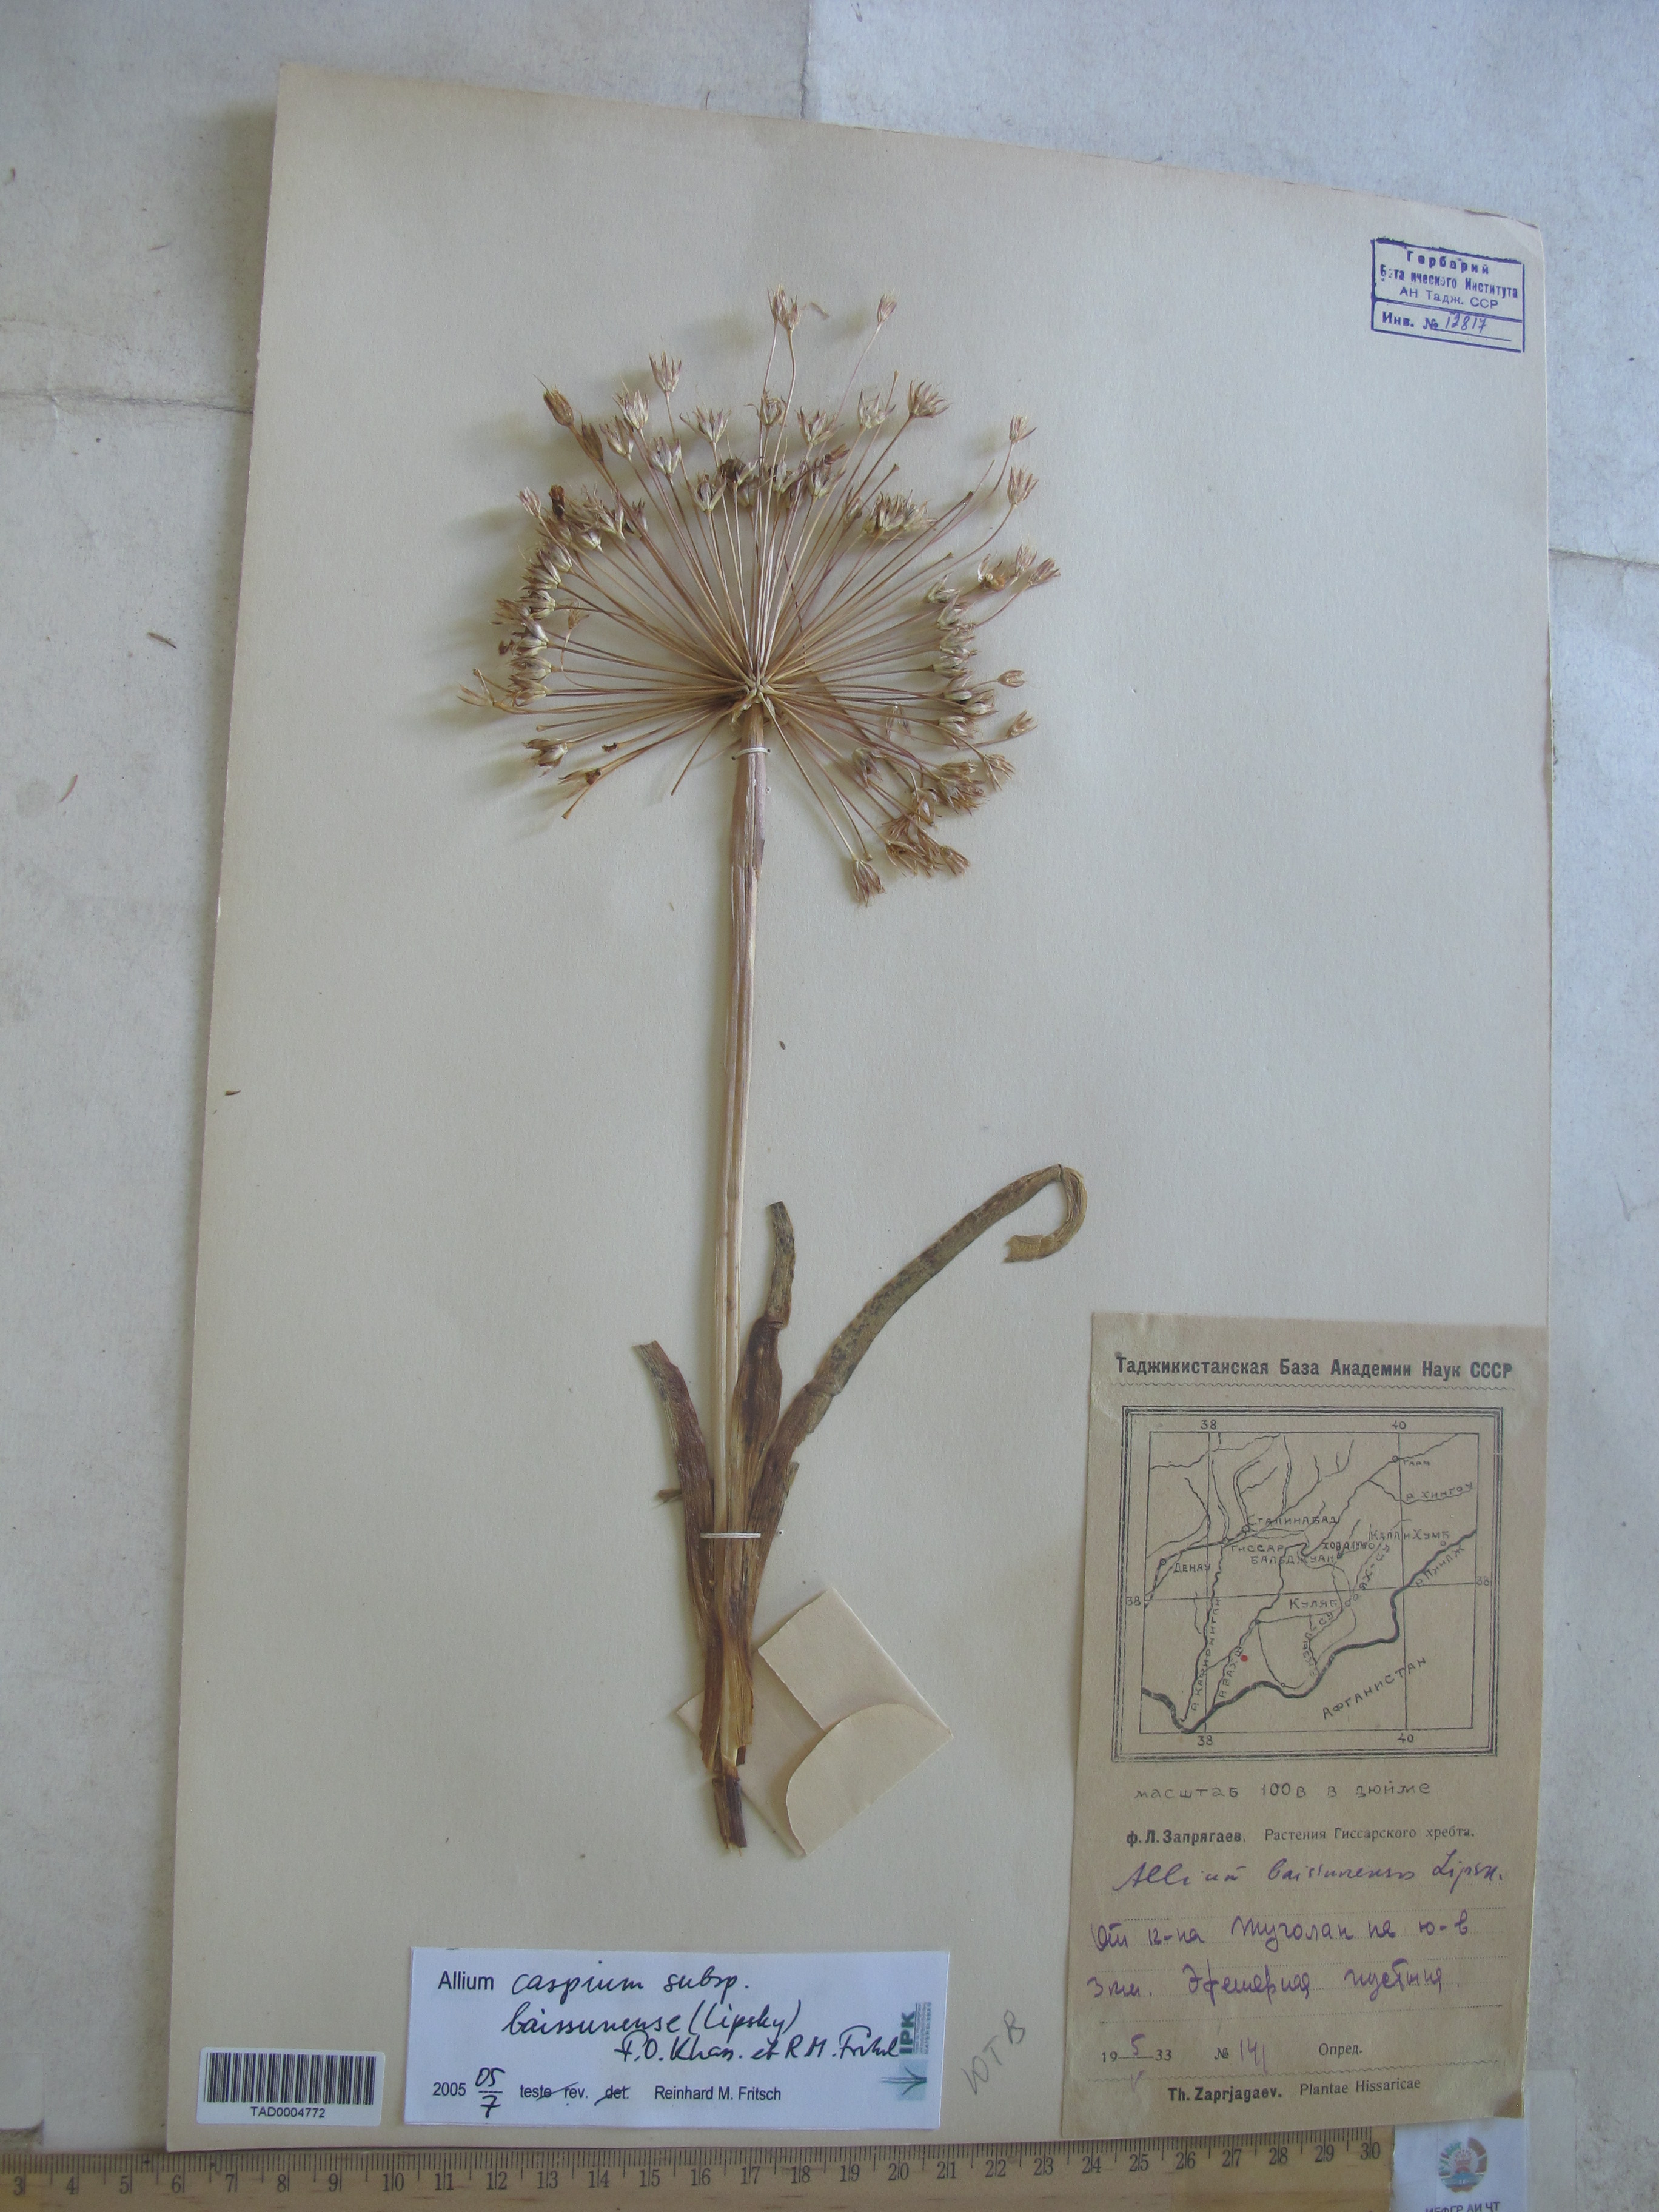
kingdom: Plantae
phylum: Tracheophyta
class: Liliopsida
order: Asparagales
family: Amaryllidaceae
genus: Allium
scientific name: Allium caspium
